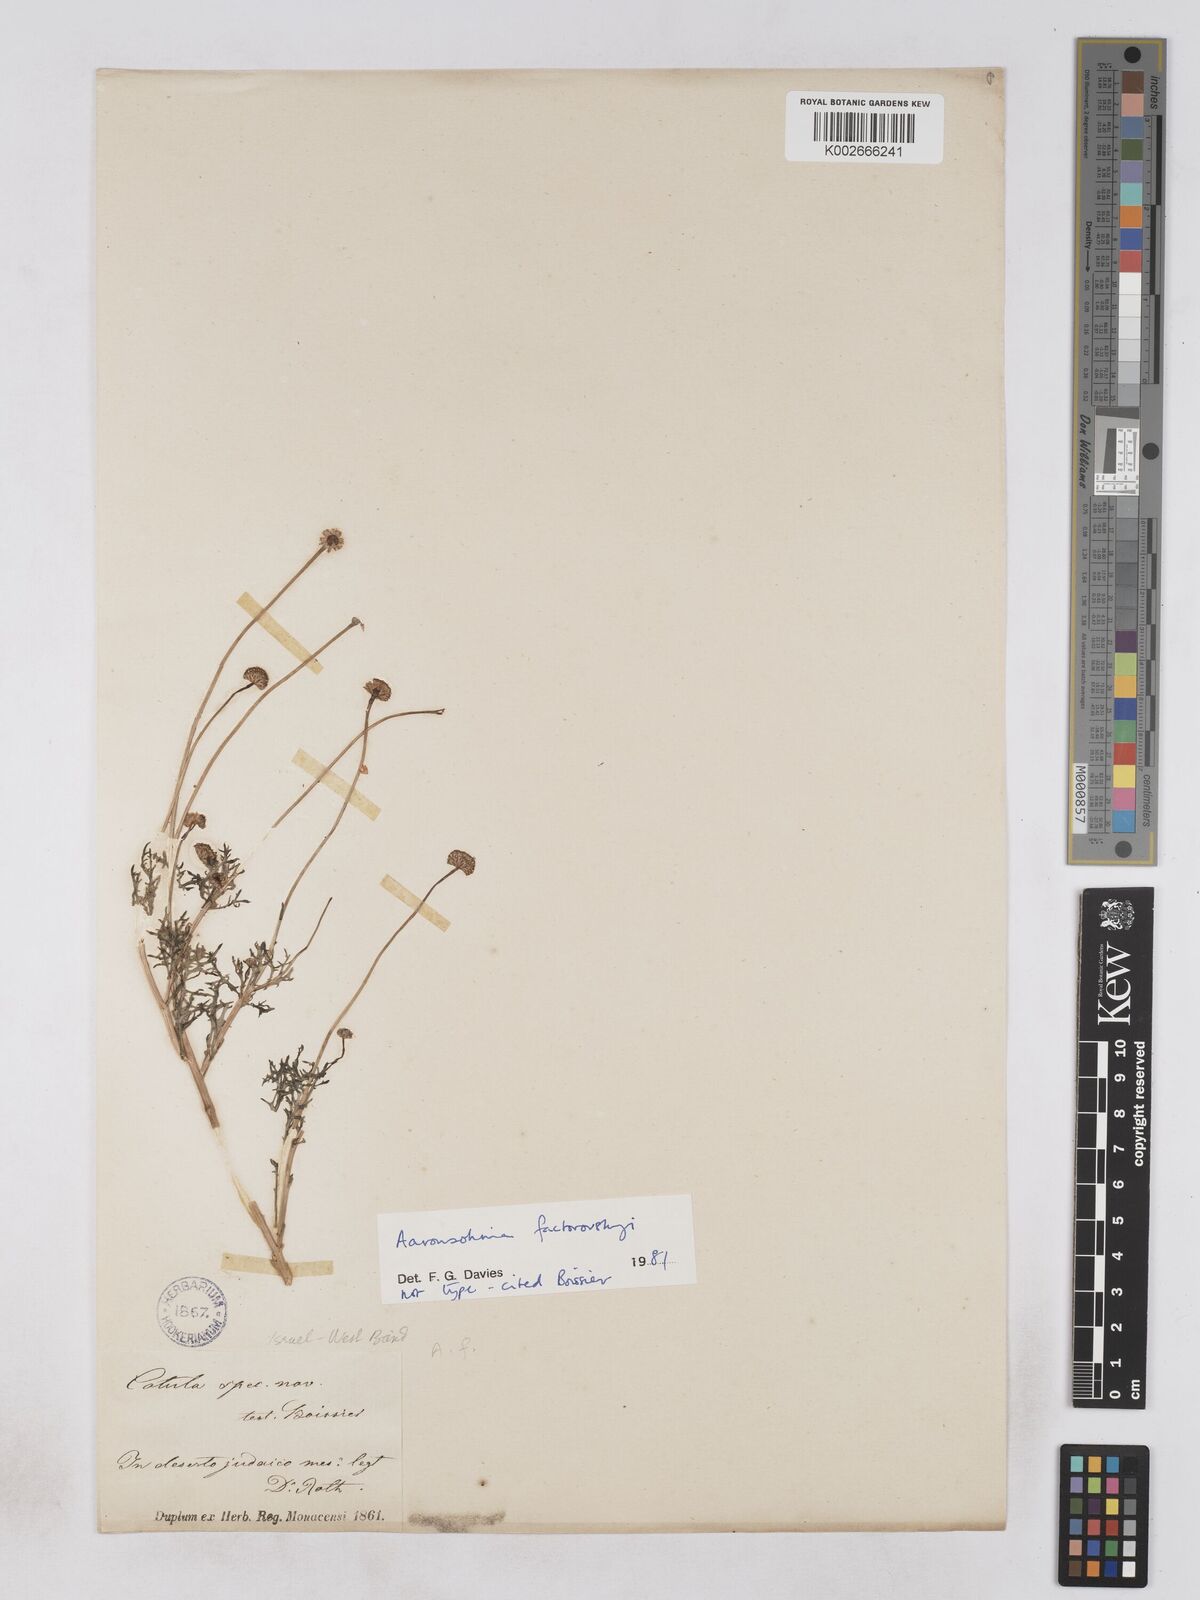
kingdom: Plantae
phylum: Tracheophyta
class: Magnoliopsida
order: Asterales
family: Asteraceae
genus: Otoglyphis
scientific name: Otoglyphis factorovskyi
